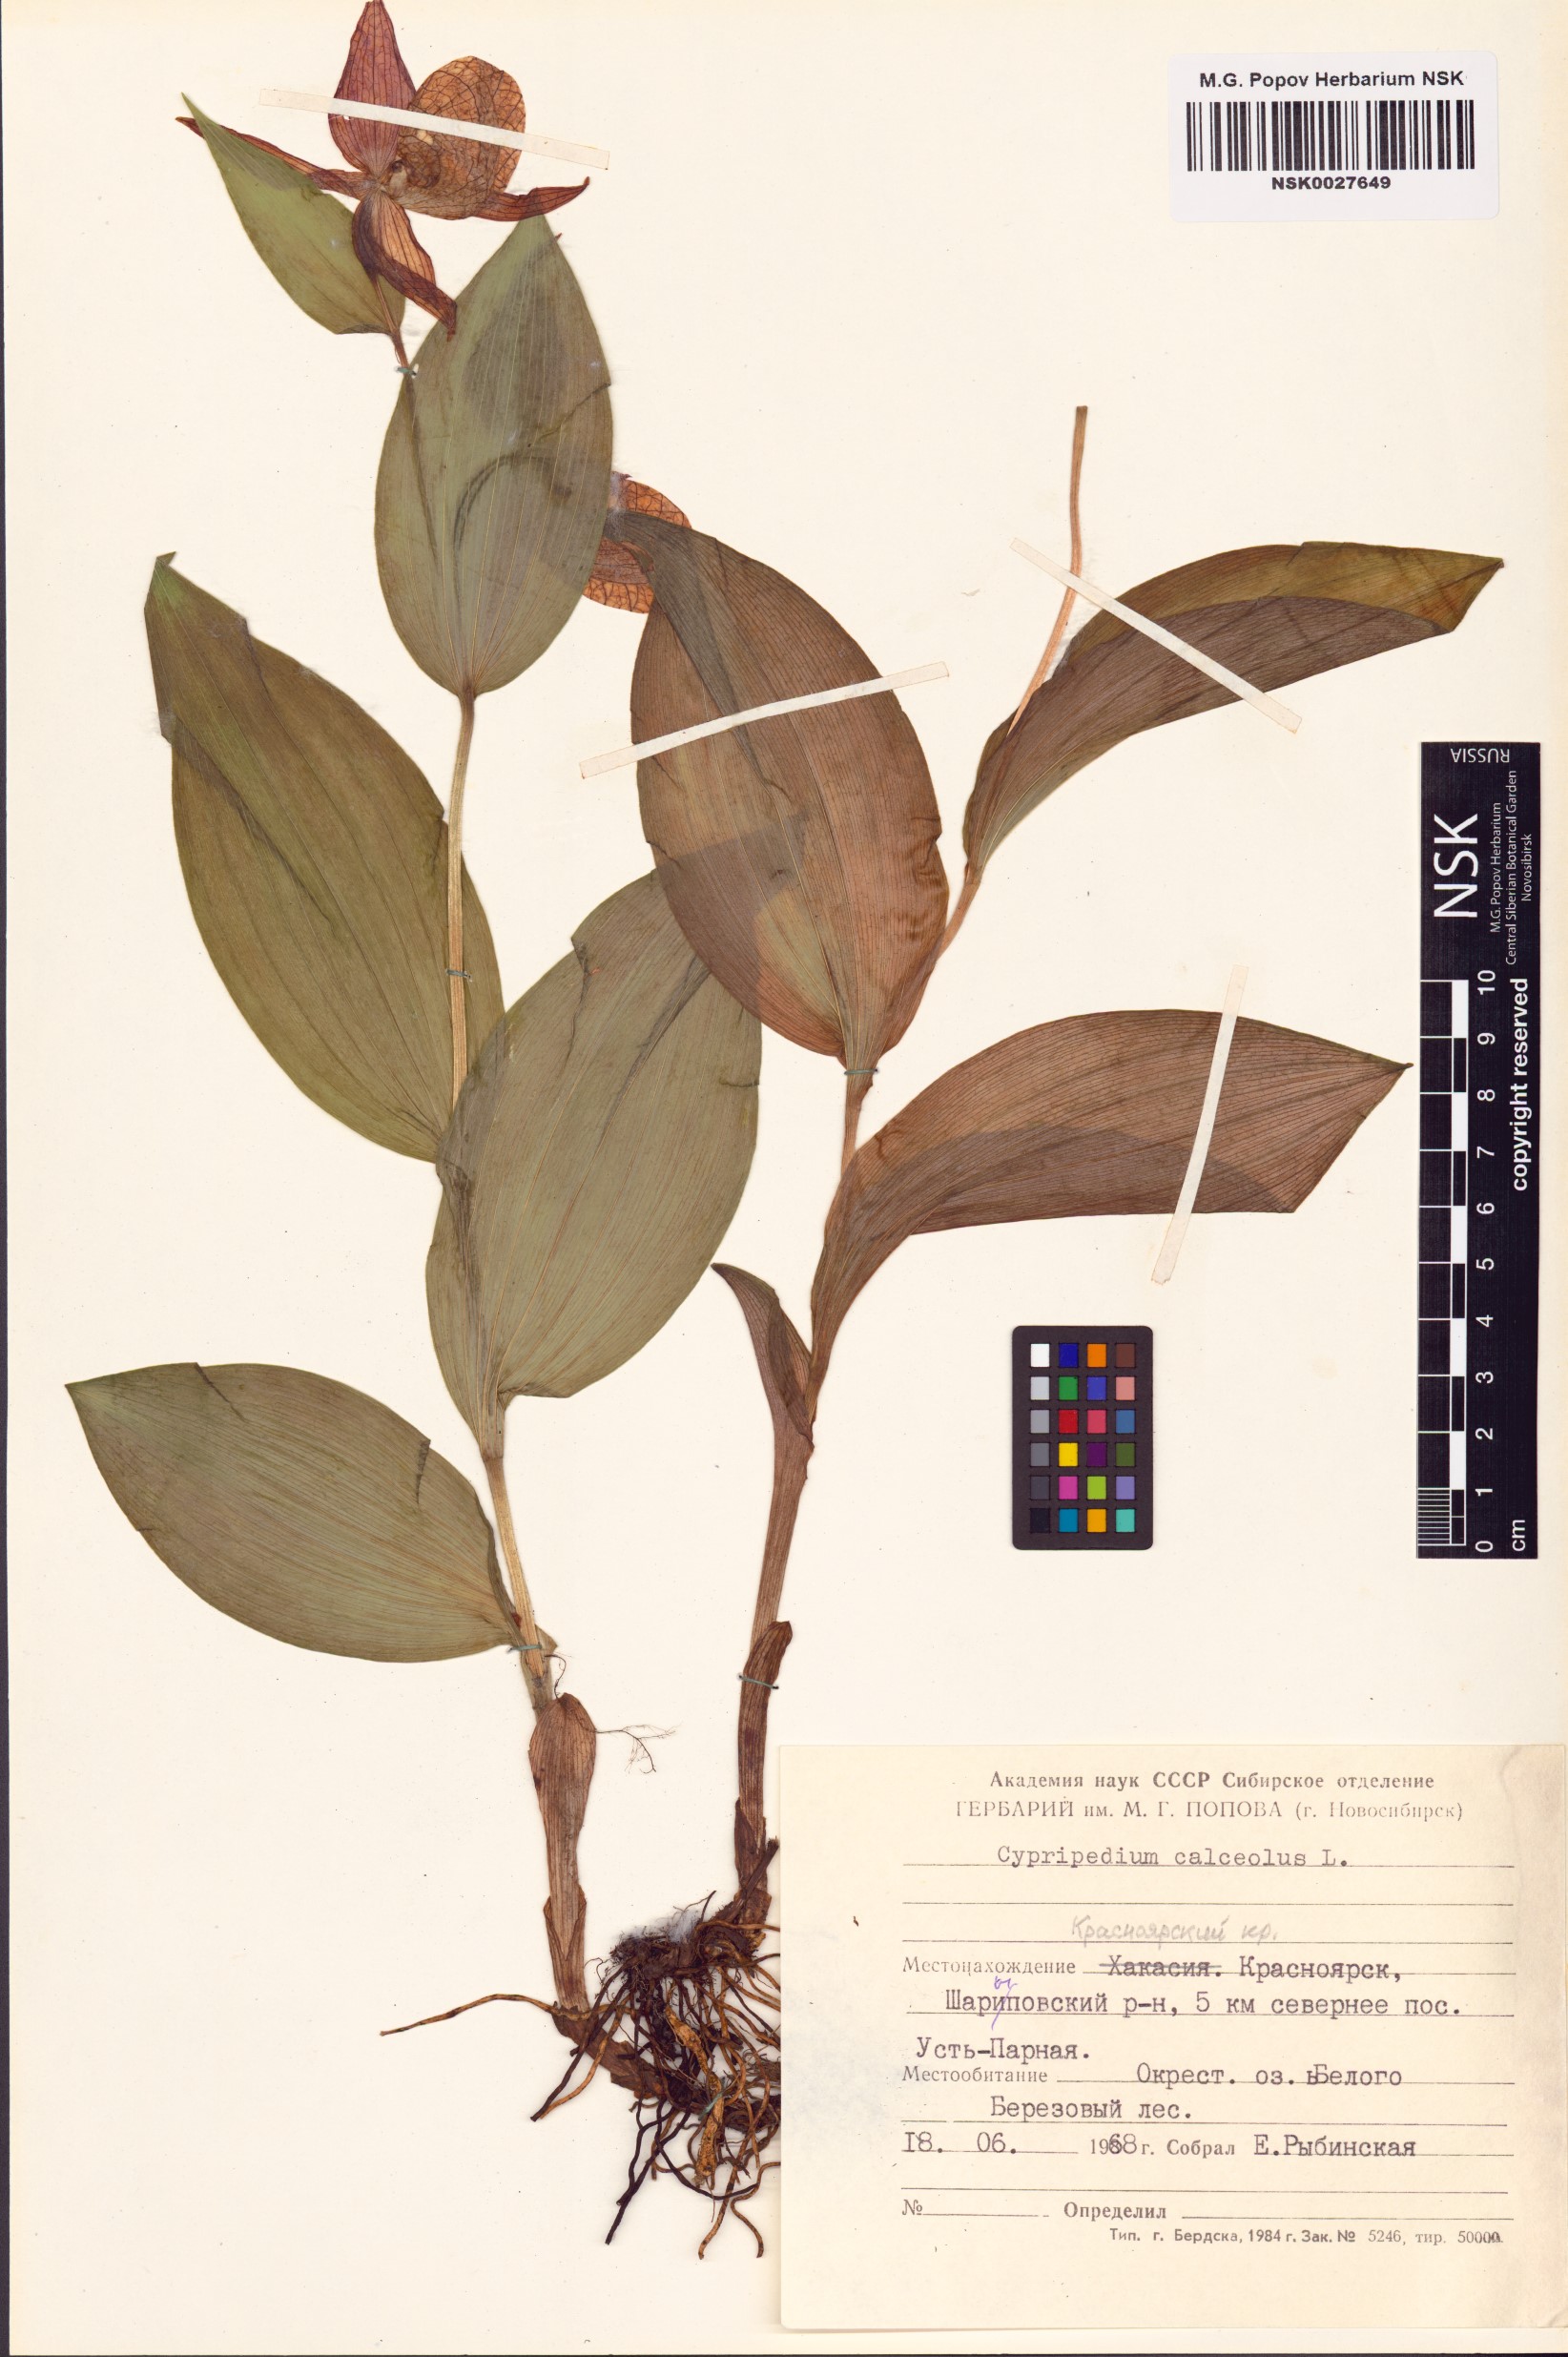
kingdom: Plantae
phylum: Tracheophyta
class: Liliopsida
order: Asparagales
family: Orchidaceae
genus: Cypripedium
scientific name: Cypripedium calceolus
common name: Lady's-slipper
